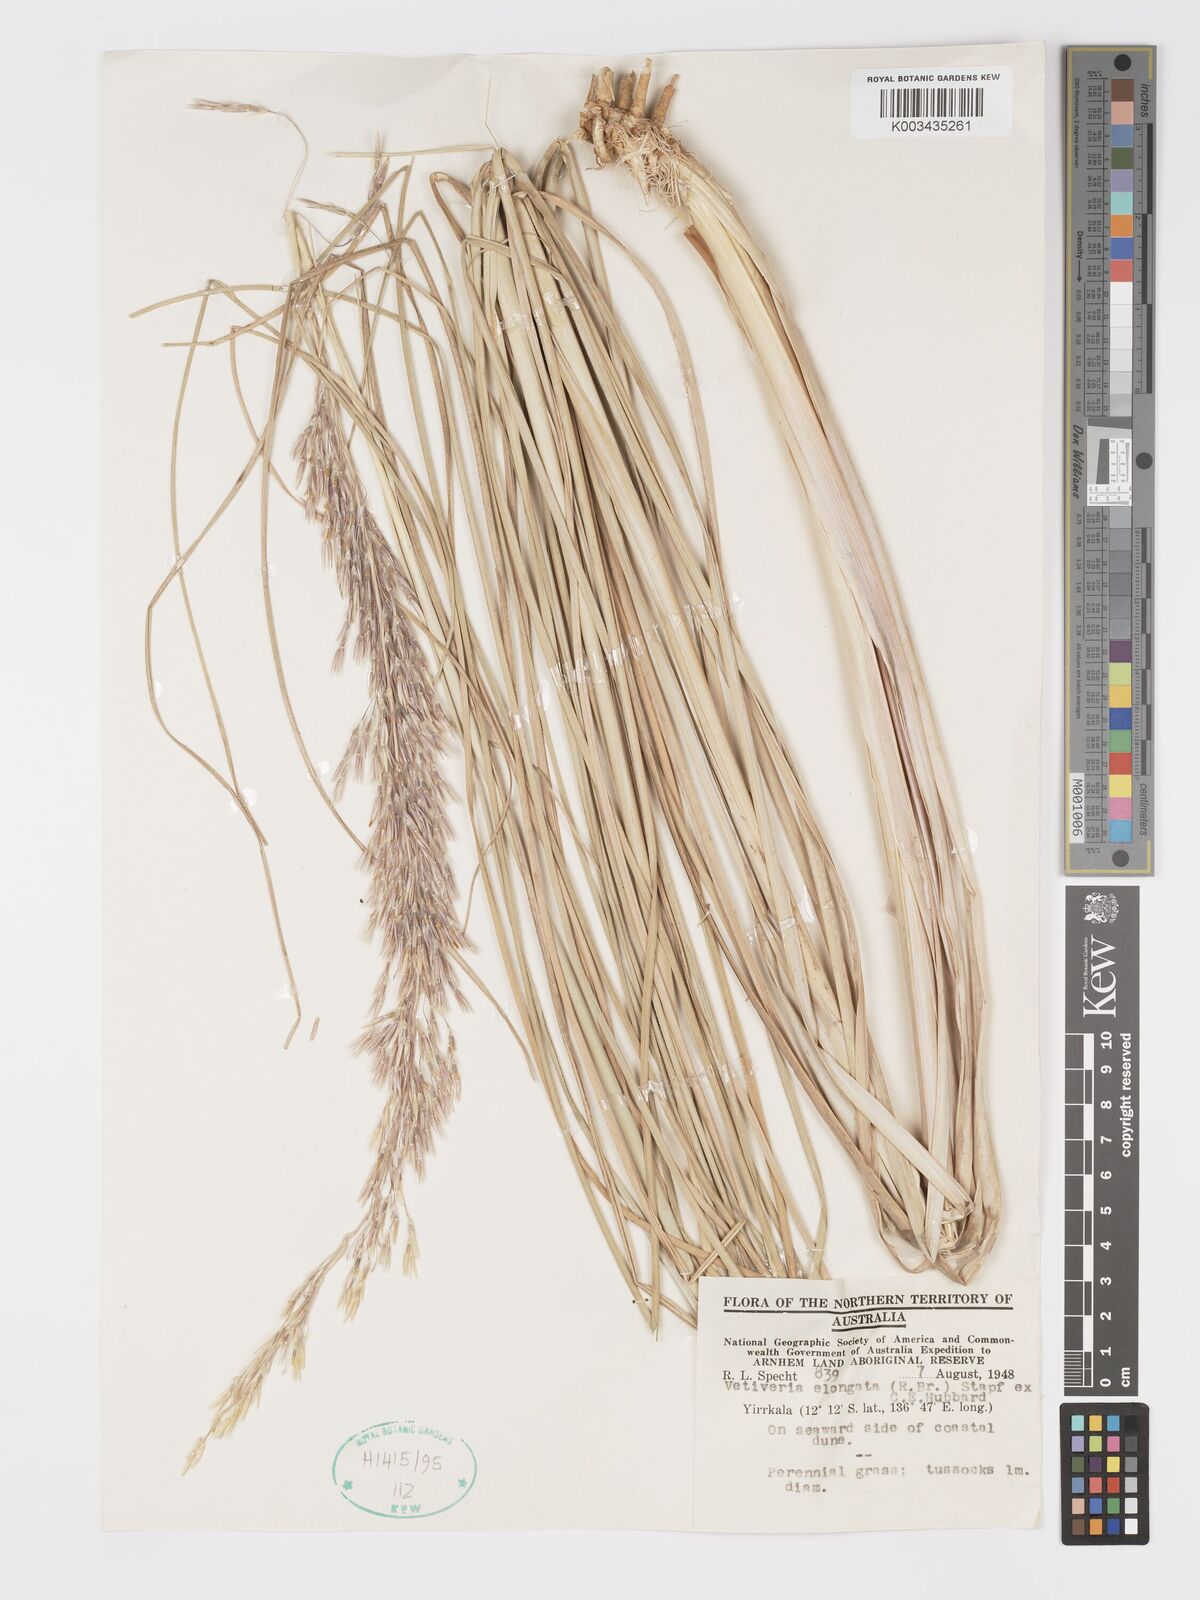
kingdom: Plantae
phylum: Tracheophyta
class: Liliopsida
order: Poales
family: Poaceae
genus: Chrysopogon
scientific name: Chrysopogon elongatus
